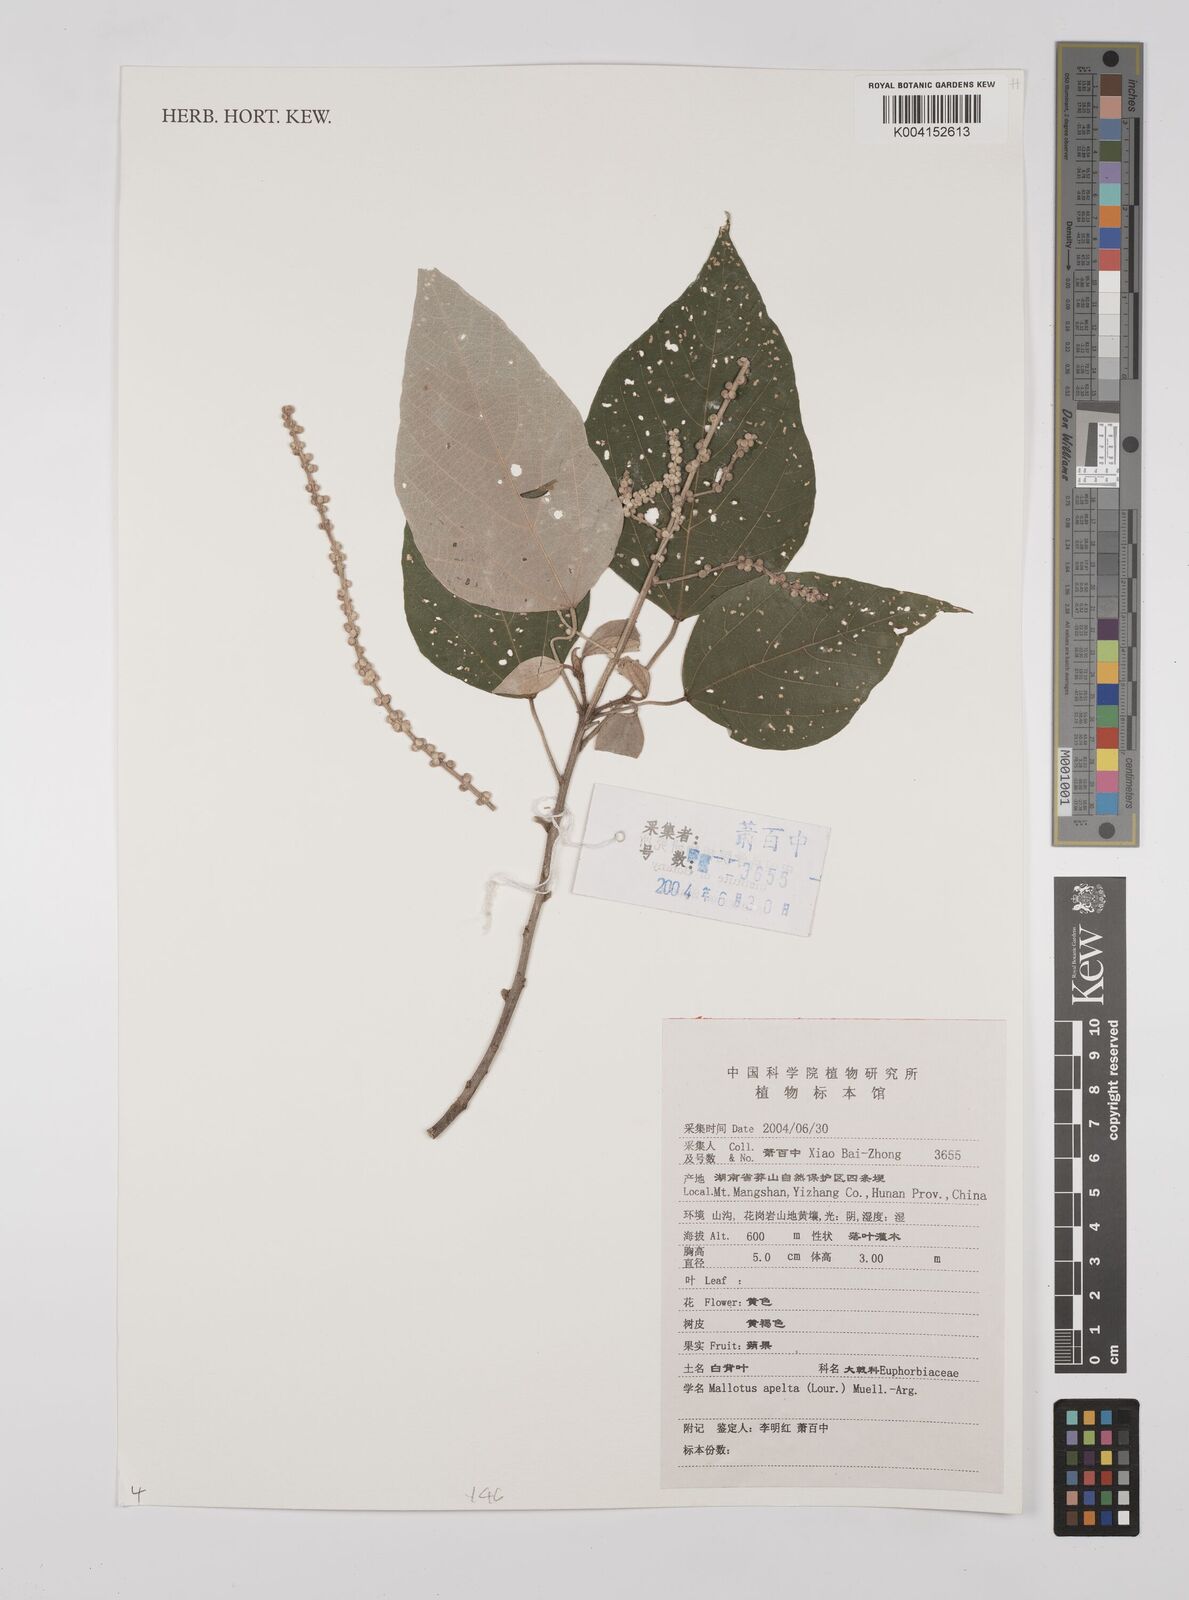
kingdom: Plantae
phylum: Tracheophyta
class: Magnoliopsida
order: Malpighiales
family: Euphorbiaceae
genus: Mallotus
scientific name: Mallotus apelta
